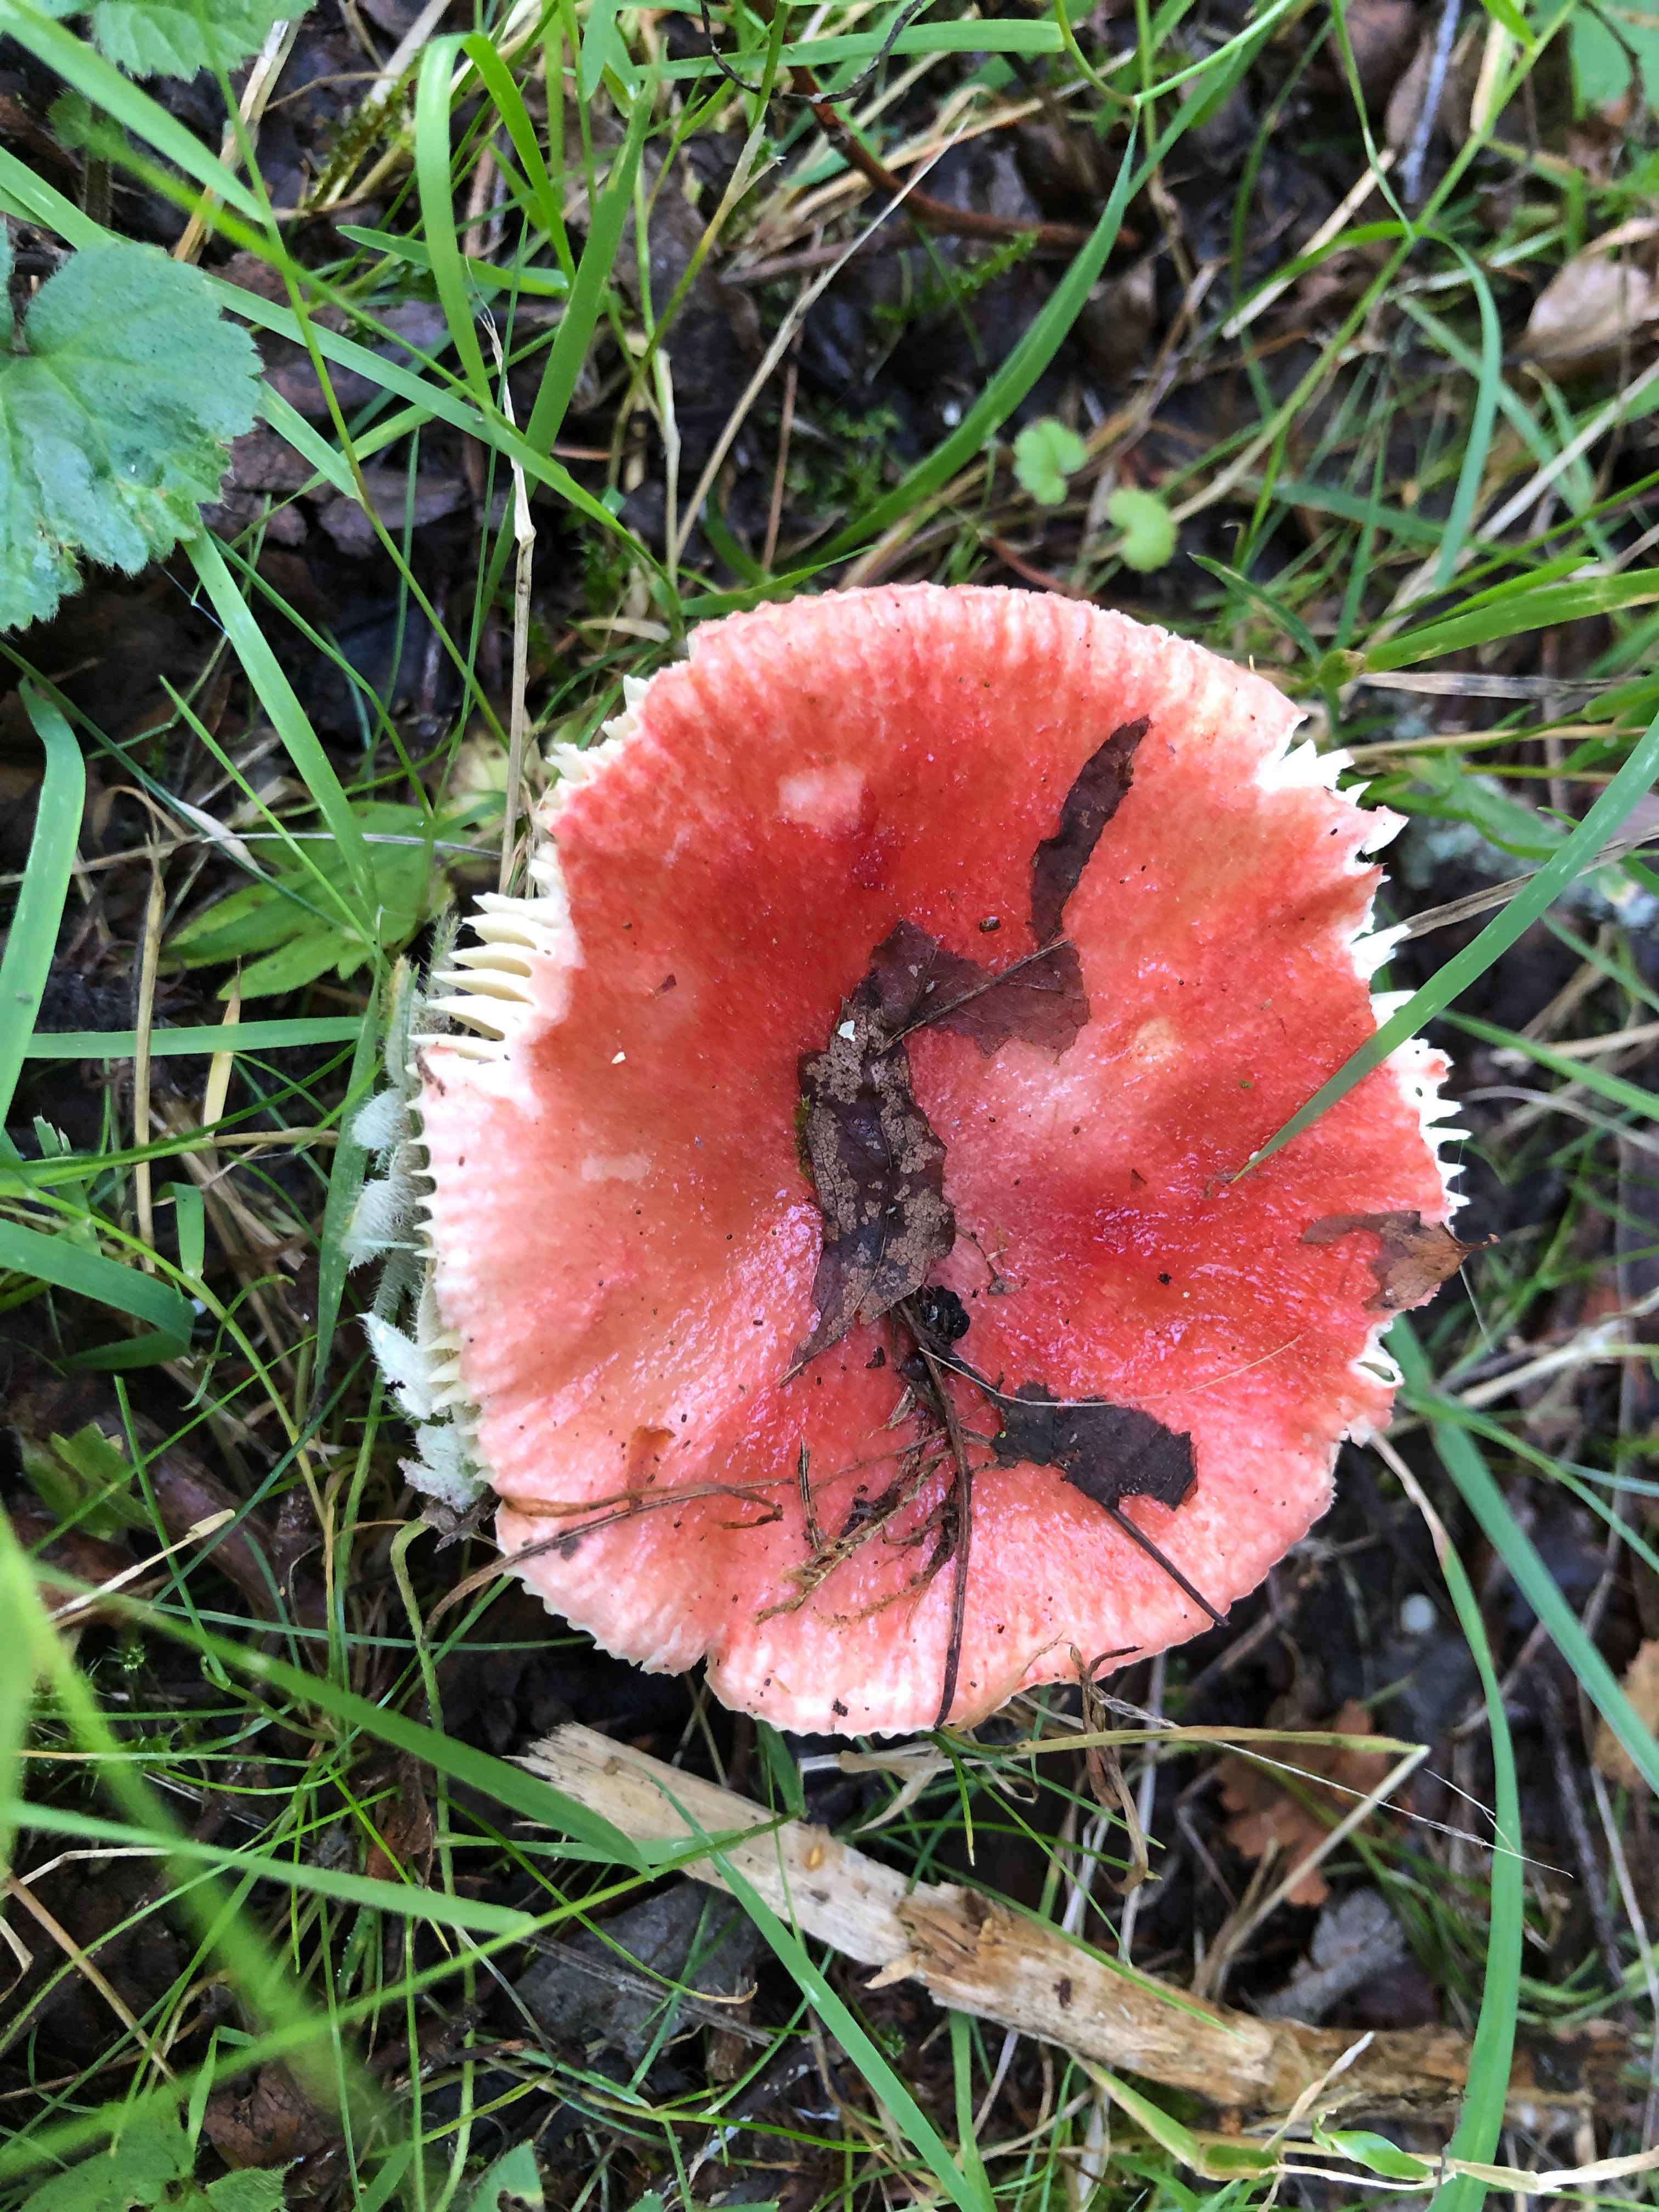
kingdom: Fungi
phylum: Basidiomycota
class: Agaricomycetes
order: Russulales
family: Russulaceae
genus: Russula
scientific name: Russula sanguinea
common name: blodrød skørhat
